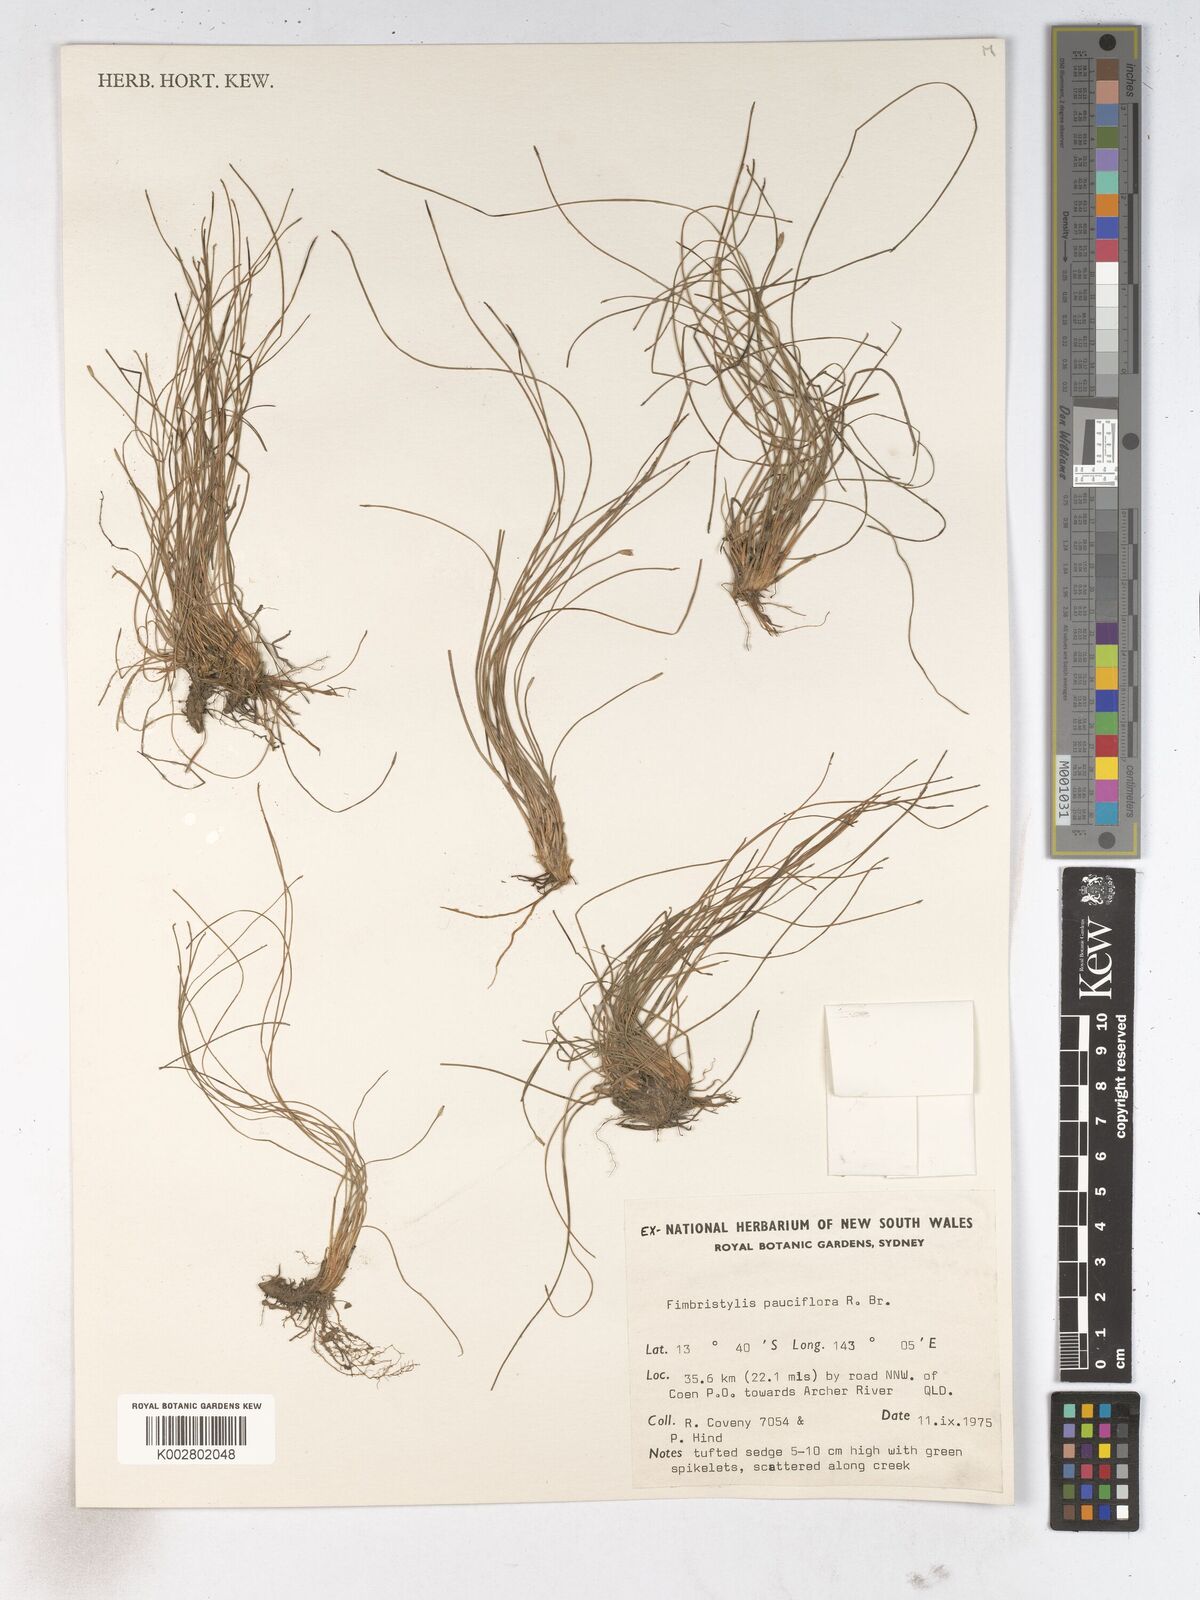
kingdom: Plantae
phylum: Tracheophyta
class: Liliopsida
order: Poales
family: Cyperaceae
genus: Fimbristylis
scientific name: Fimbristylis pauciflora
